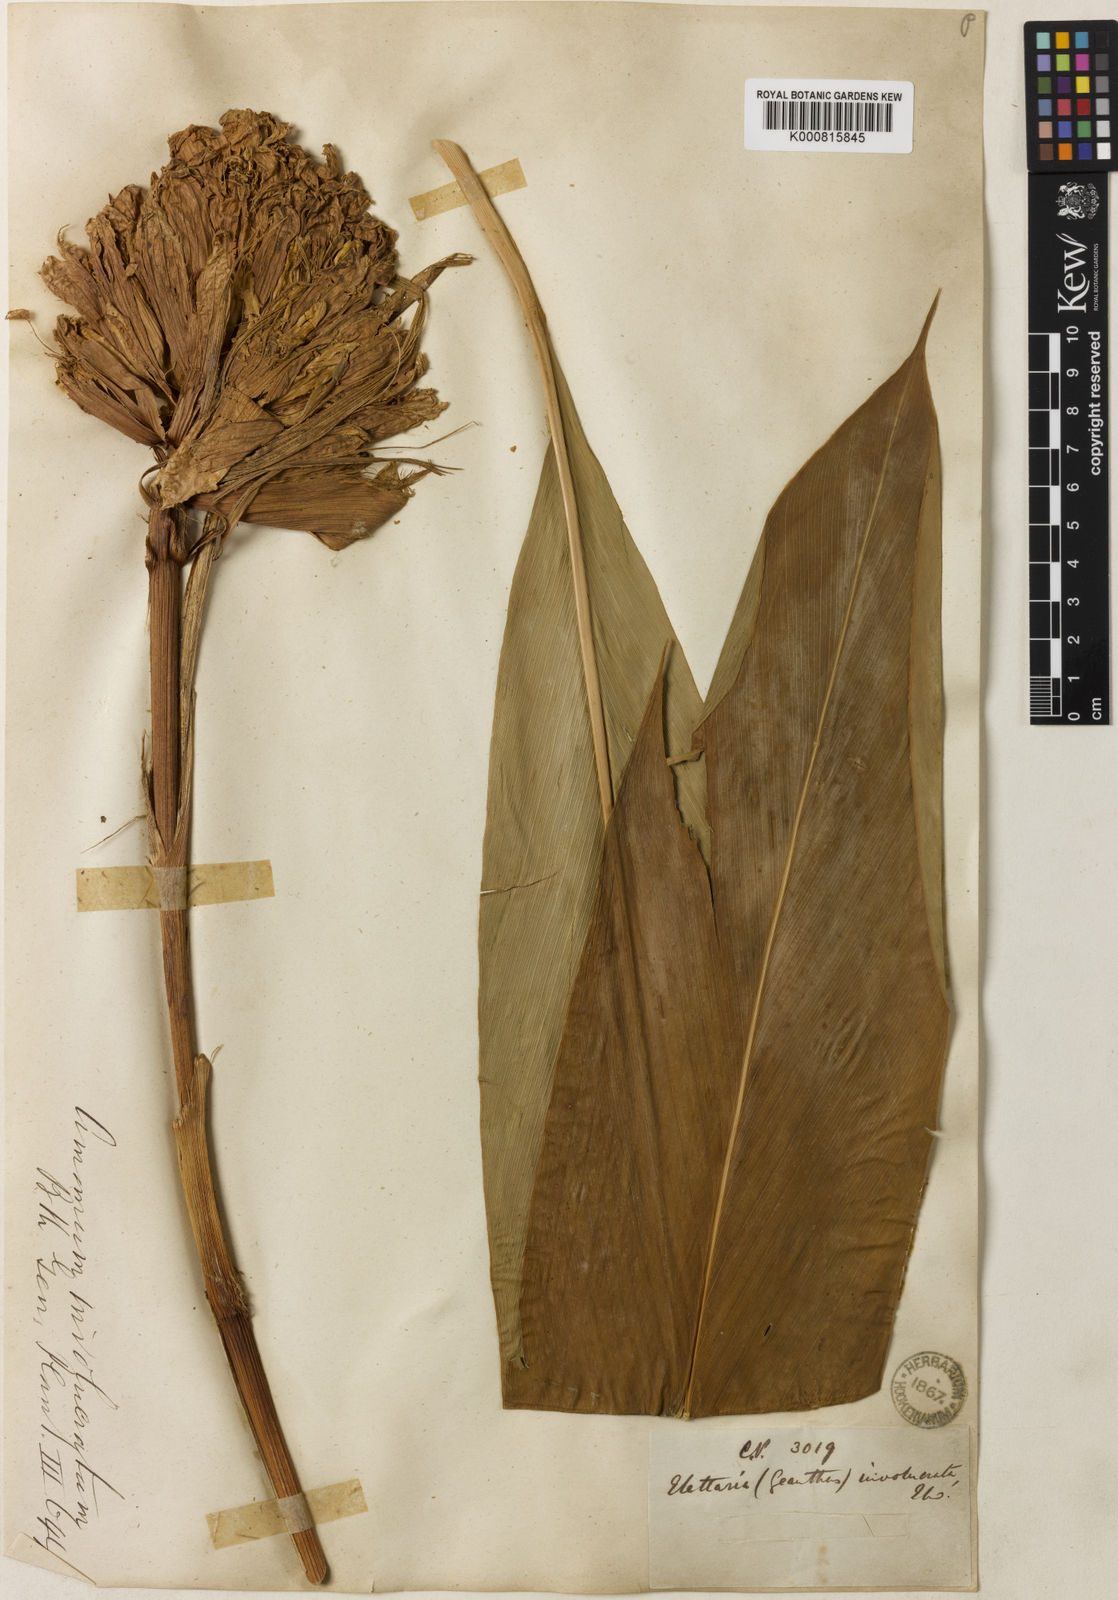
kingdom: Plantae
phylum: Tracheophyta
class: Liliopsida
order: Zingiberales
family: Zingiberaceae
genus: Alpinia
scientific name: Alpinia fax
